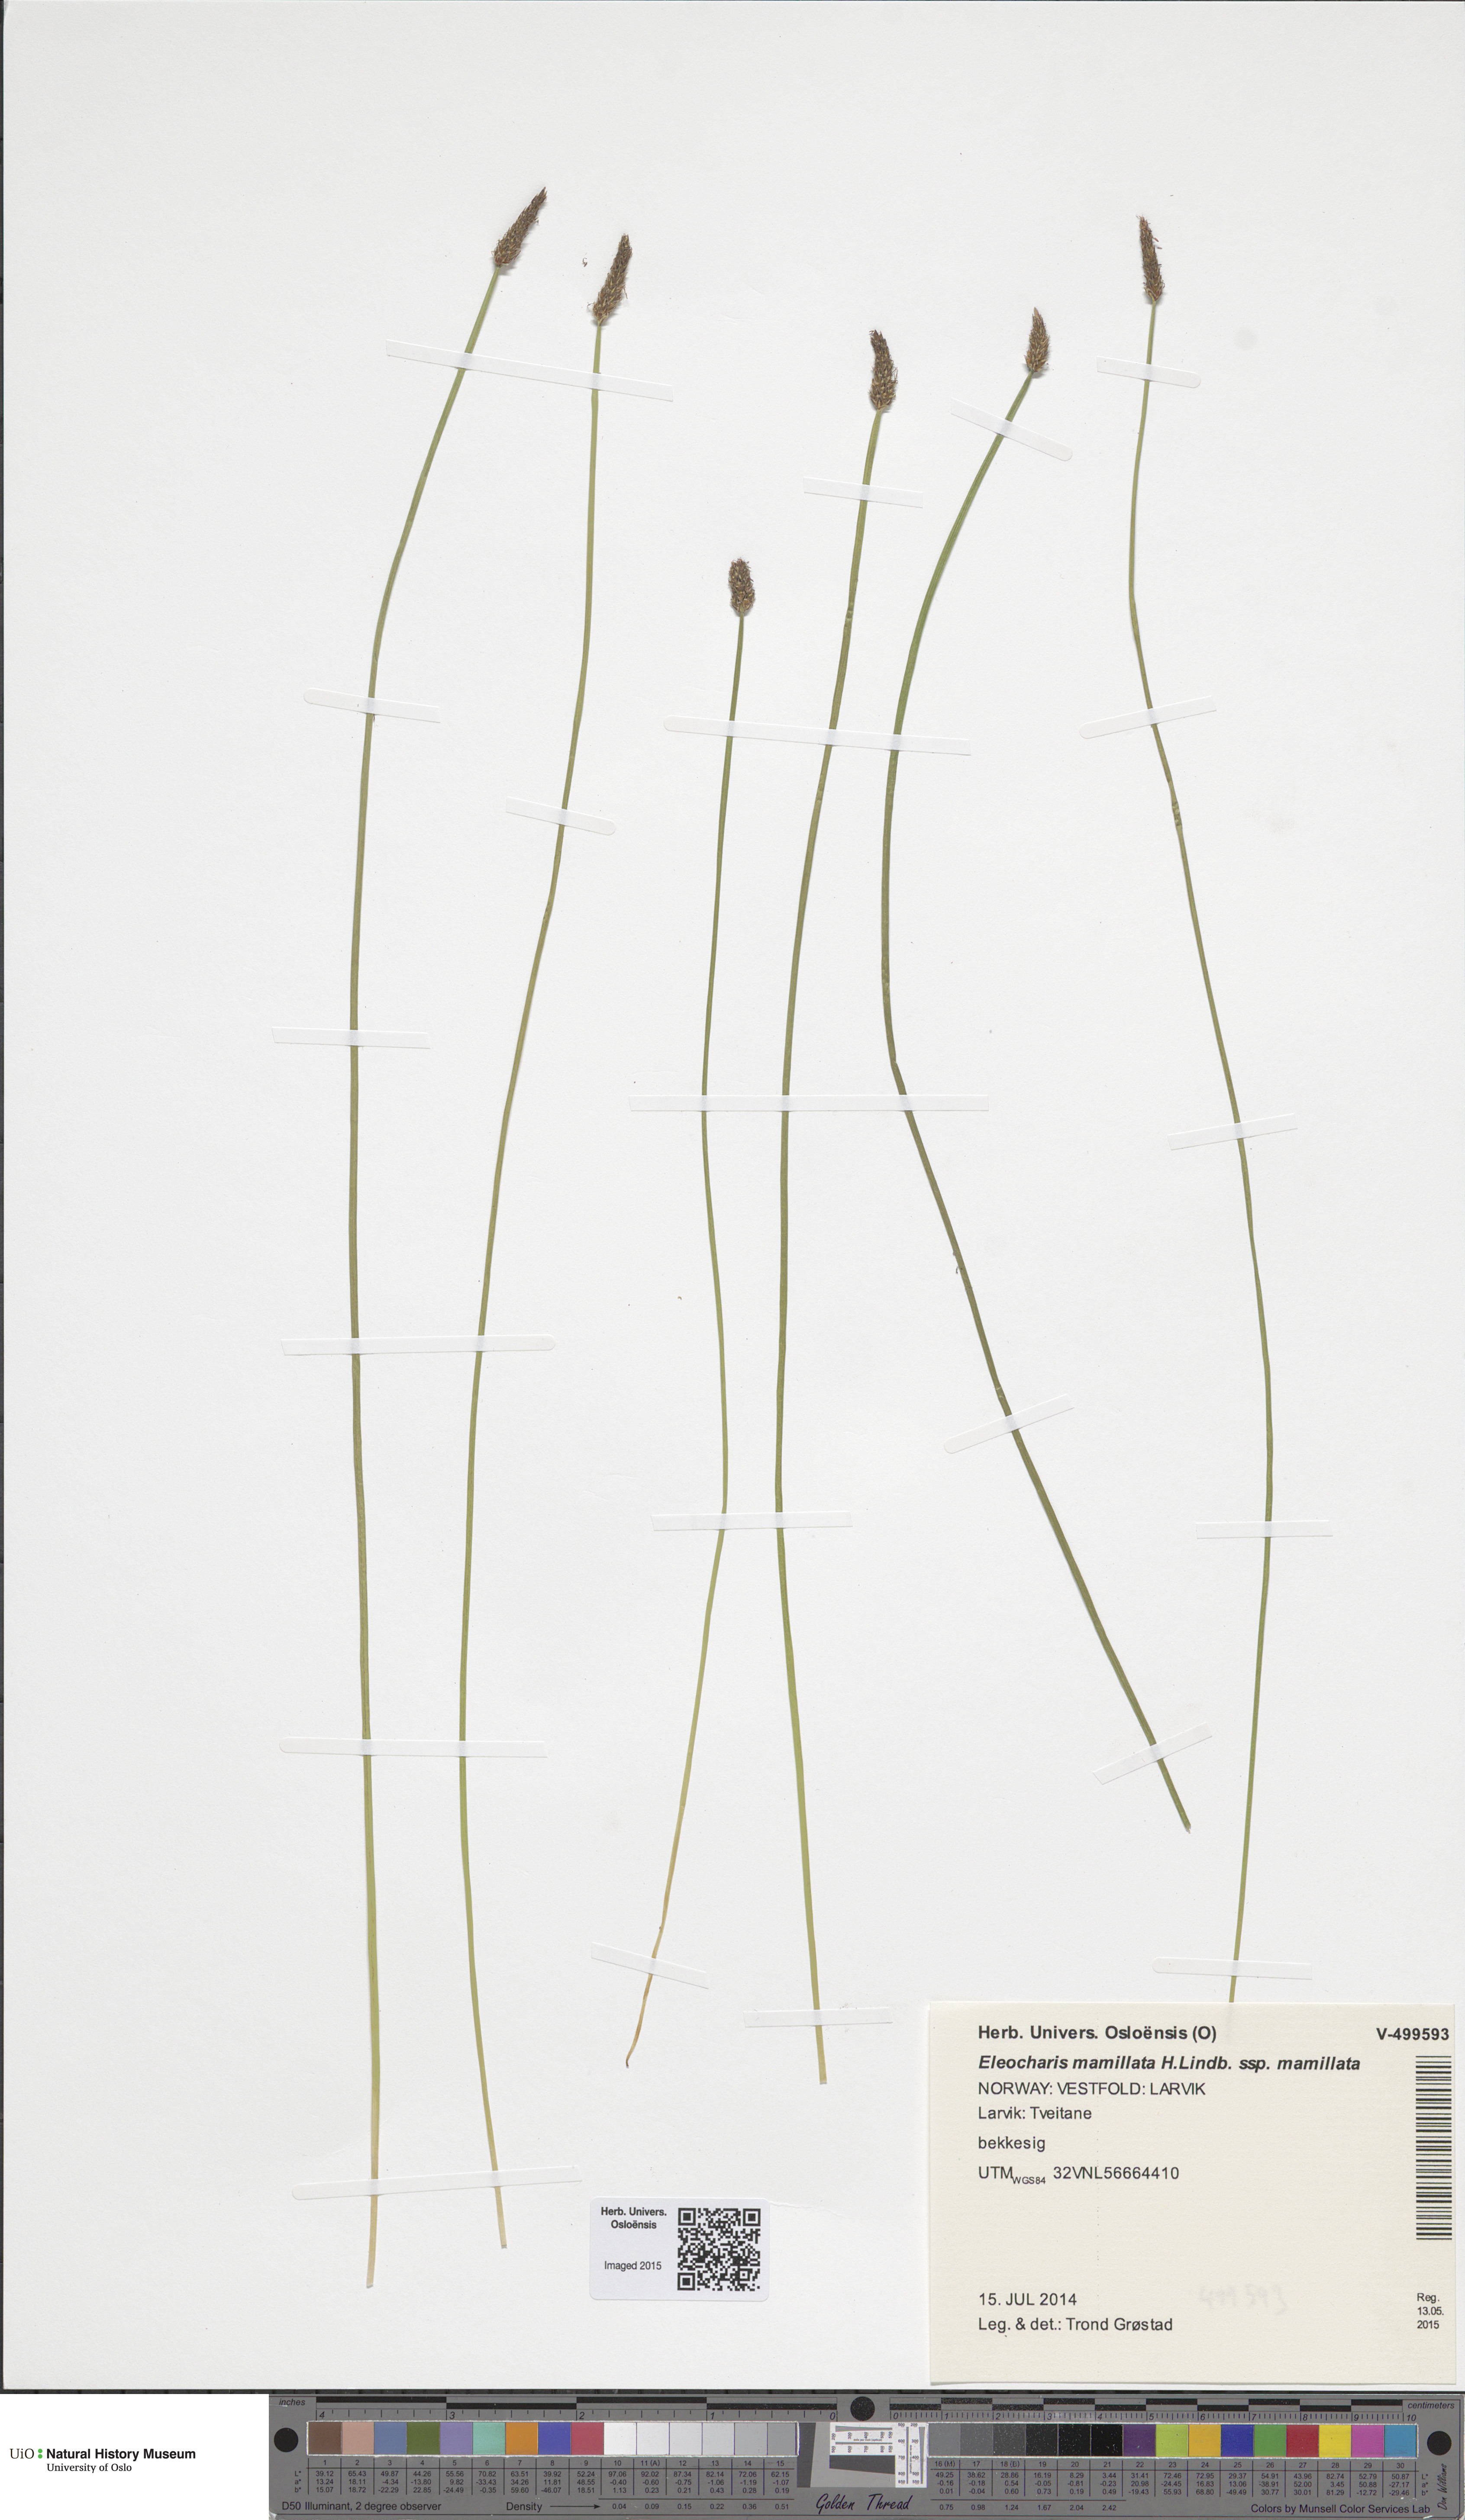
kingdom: Plantae
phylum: Tracheophyta
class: Liliopsida
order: Poales
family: Cyperaceae
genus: Eleocharis
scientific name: Eleocharis mamillata
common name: Northern spike-rush
